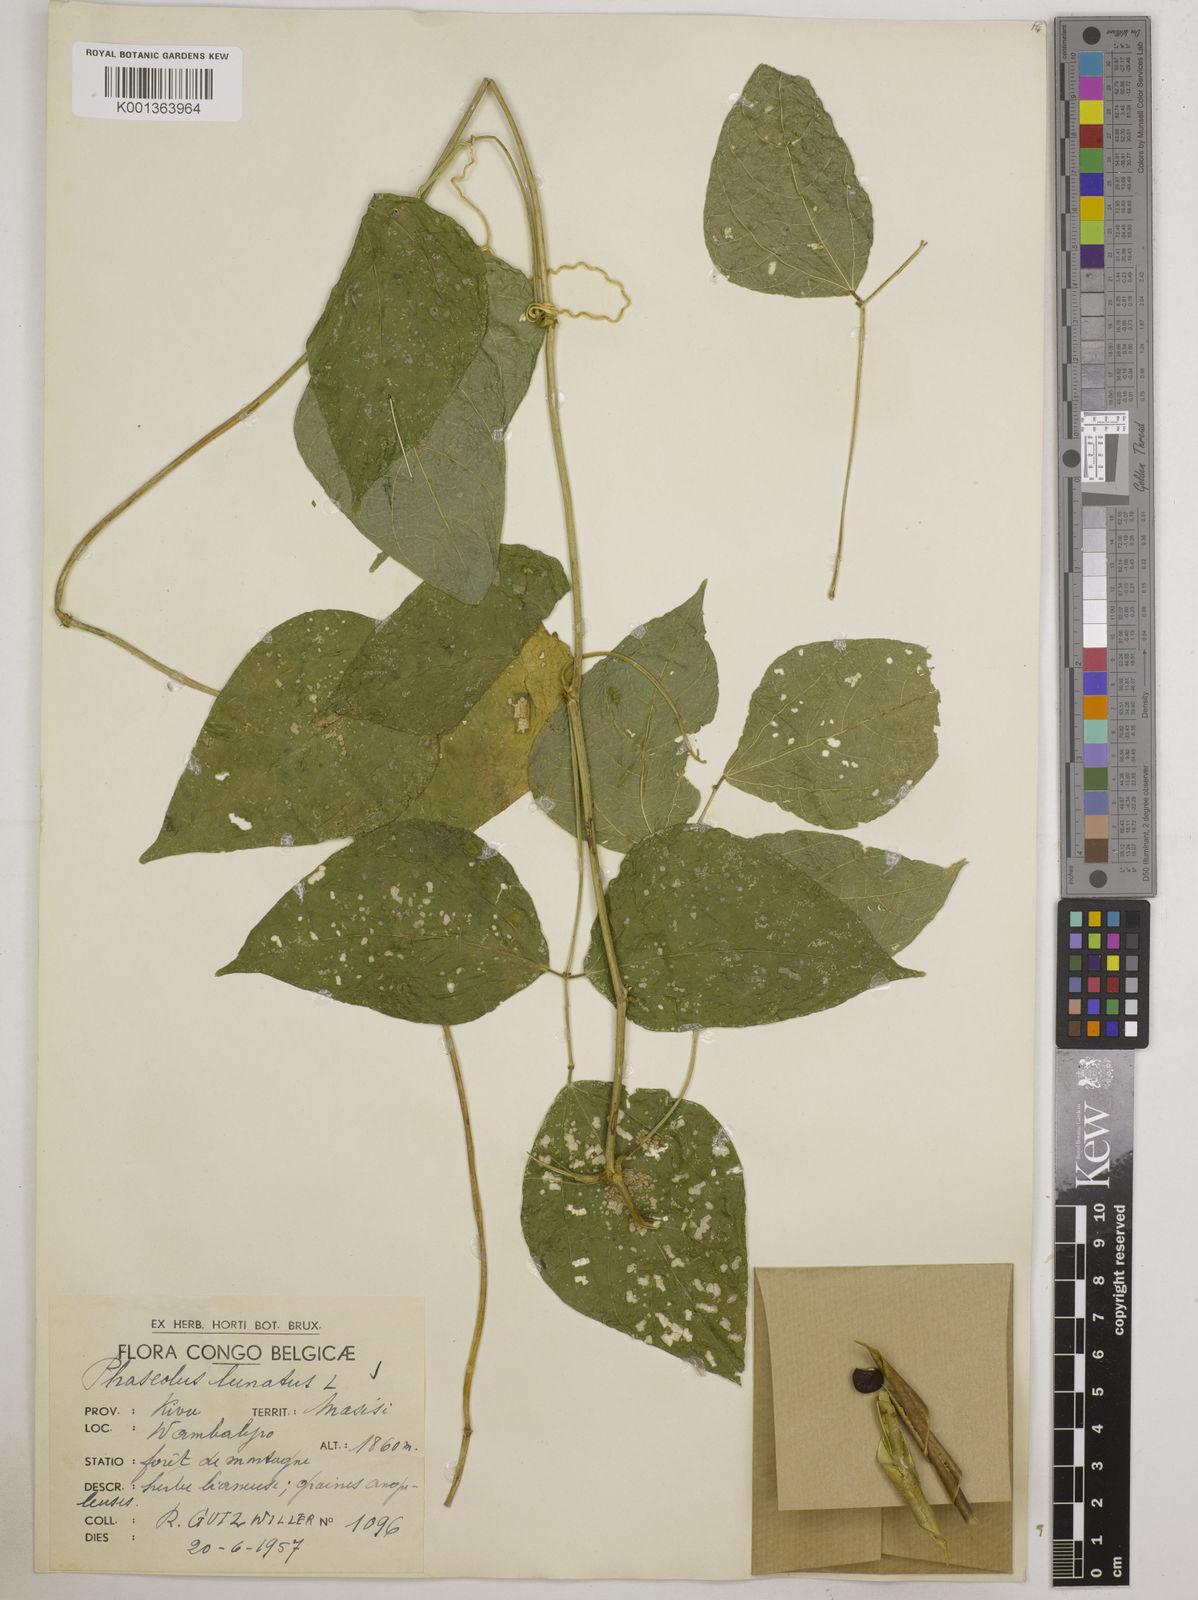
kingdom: Plantae
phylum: Tracheophyta
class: Magnoliopsida
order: Fabales
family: Fabaceae
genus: Phaseolus
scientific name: Phaseolus lunatus
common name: Sieva bean
